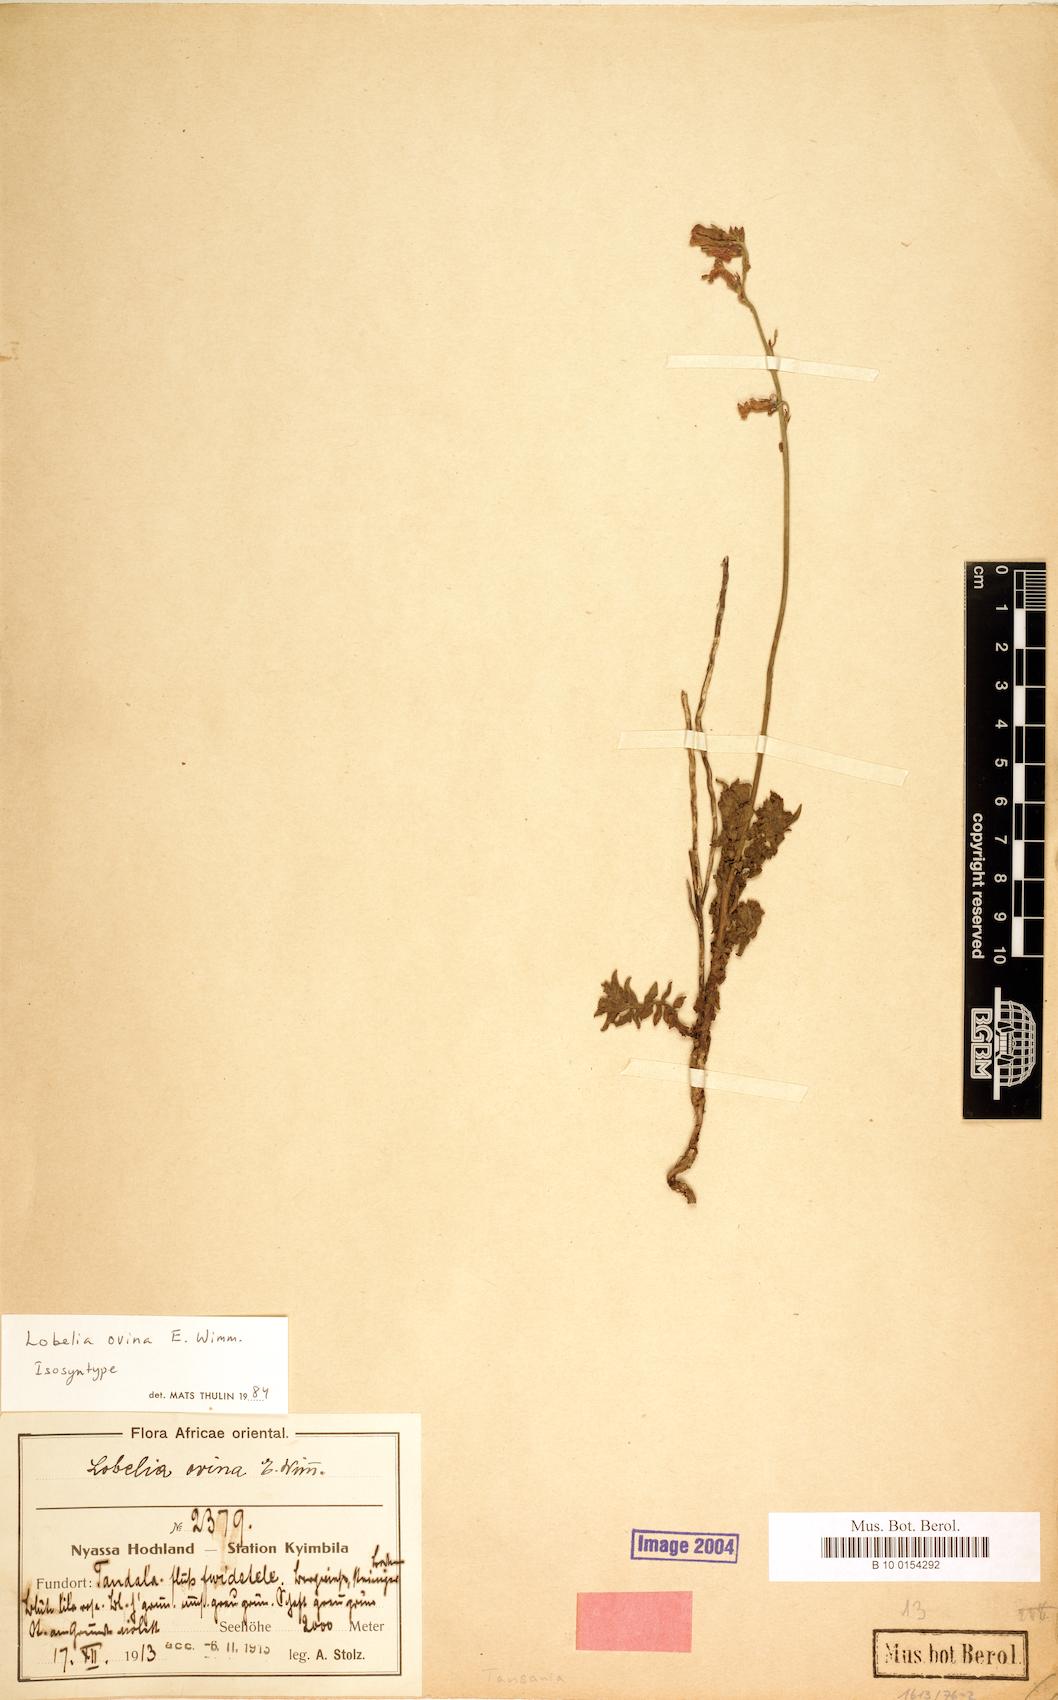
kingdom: Plantae
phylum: Tracheophyta
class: Magnoliopsida
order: Asterales
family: Campanulaceae
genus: Lobelia
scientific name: Lobelia ovina
